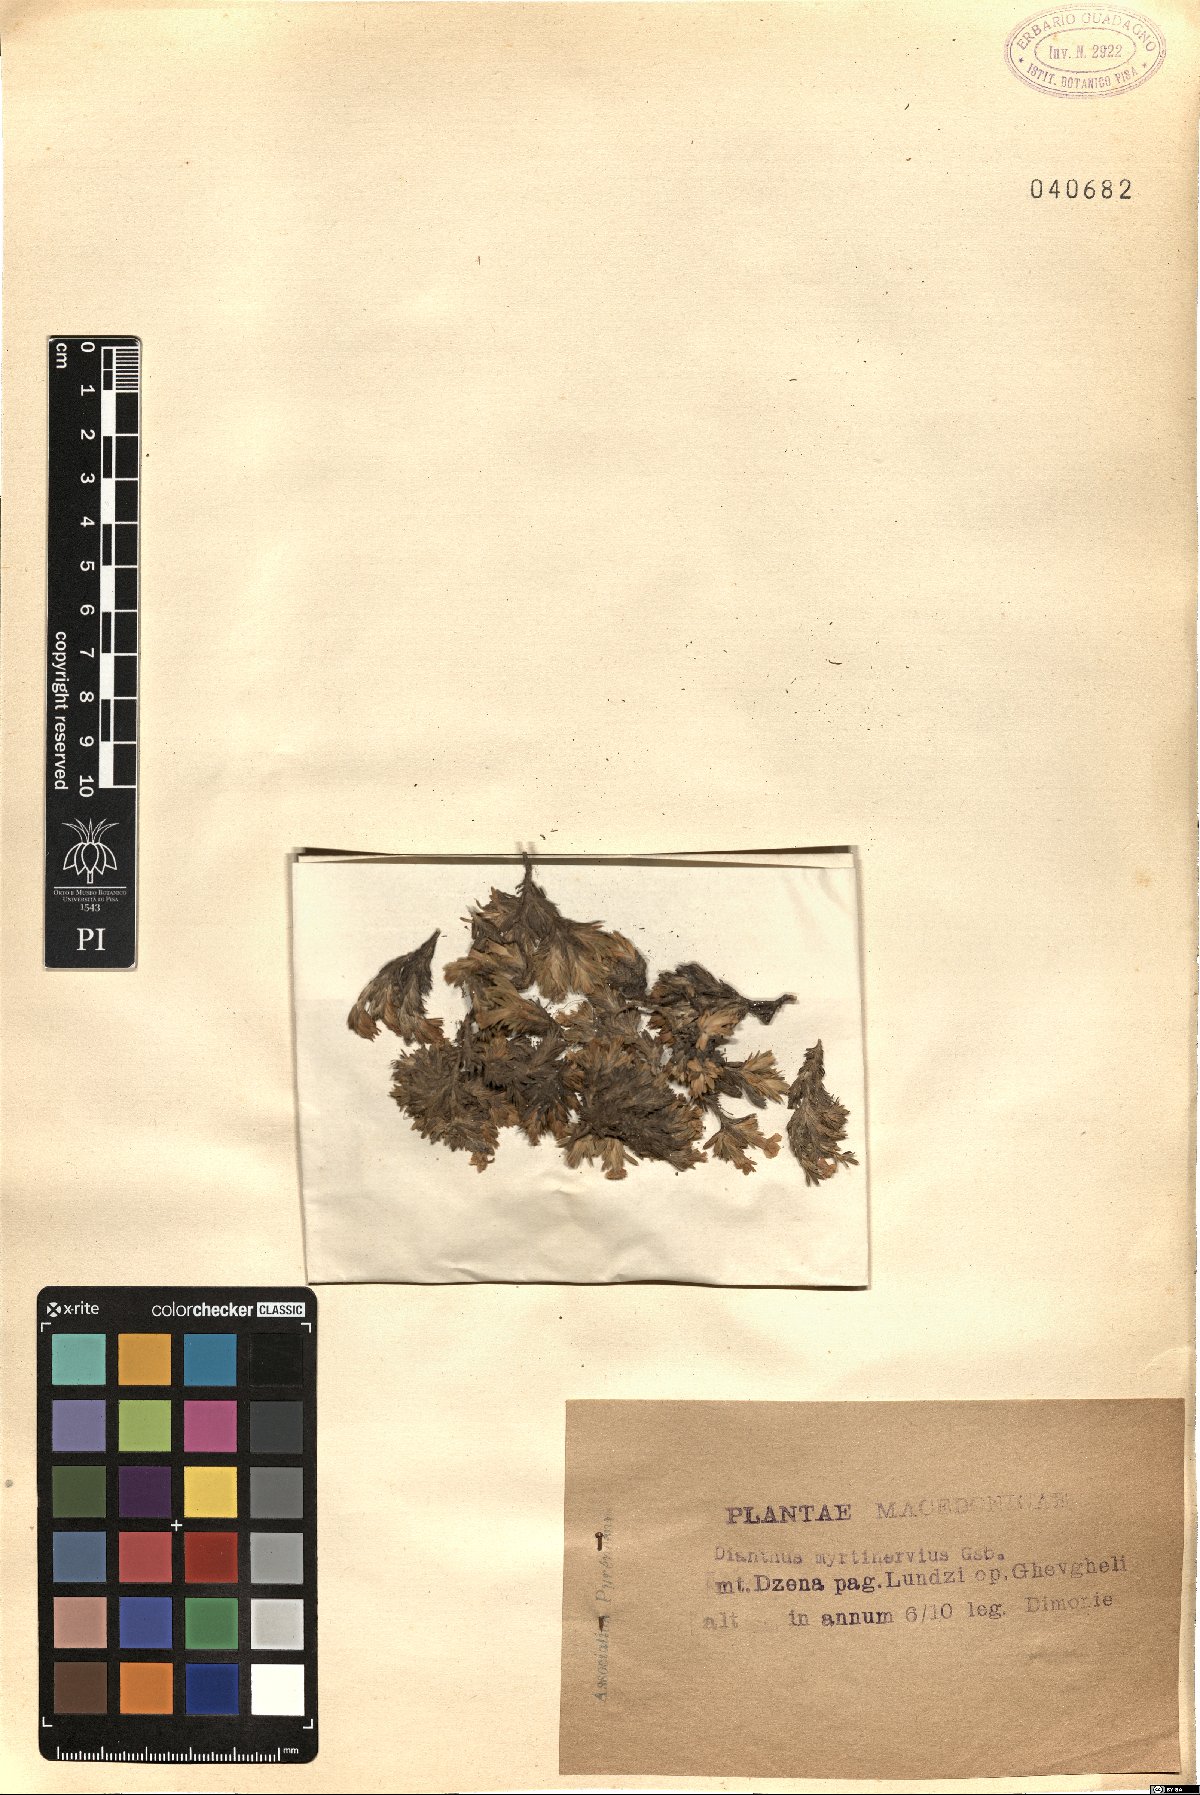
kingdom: Plantae
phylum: Tracheophyta
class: Magnoliopsida
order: Caryophyllales
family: Caryophyllaceae
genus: Dianthus
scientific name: Dianthus myrtinervius
